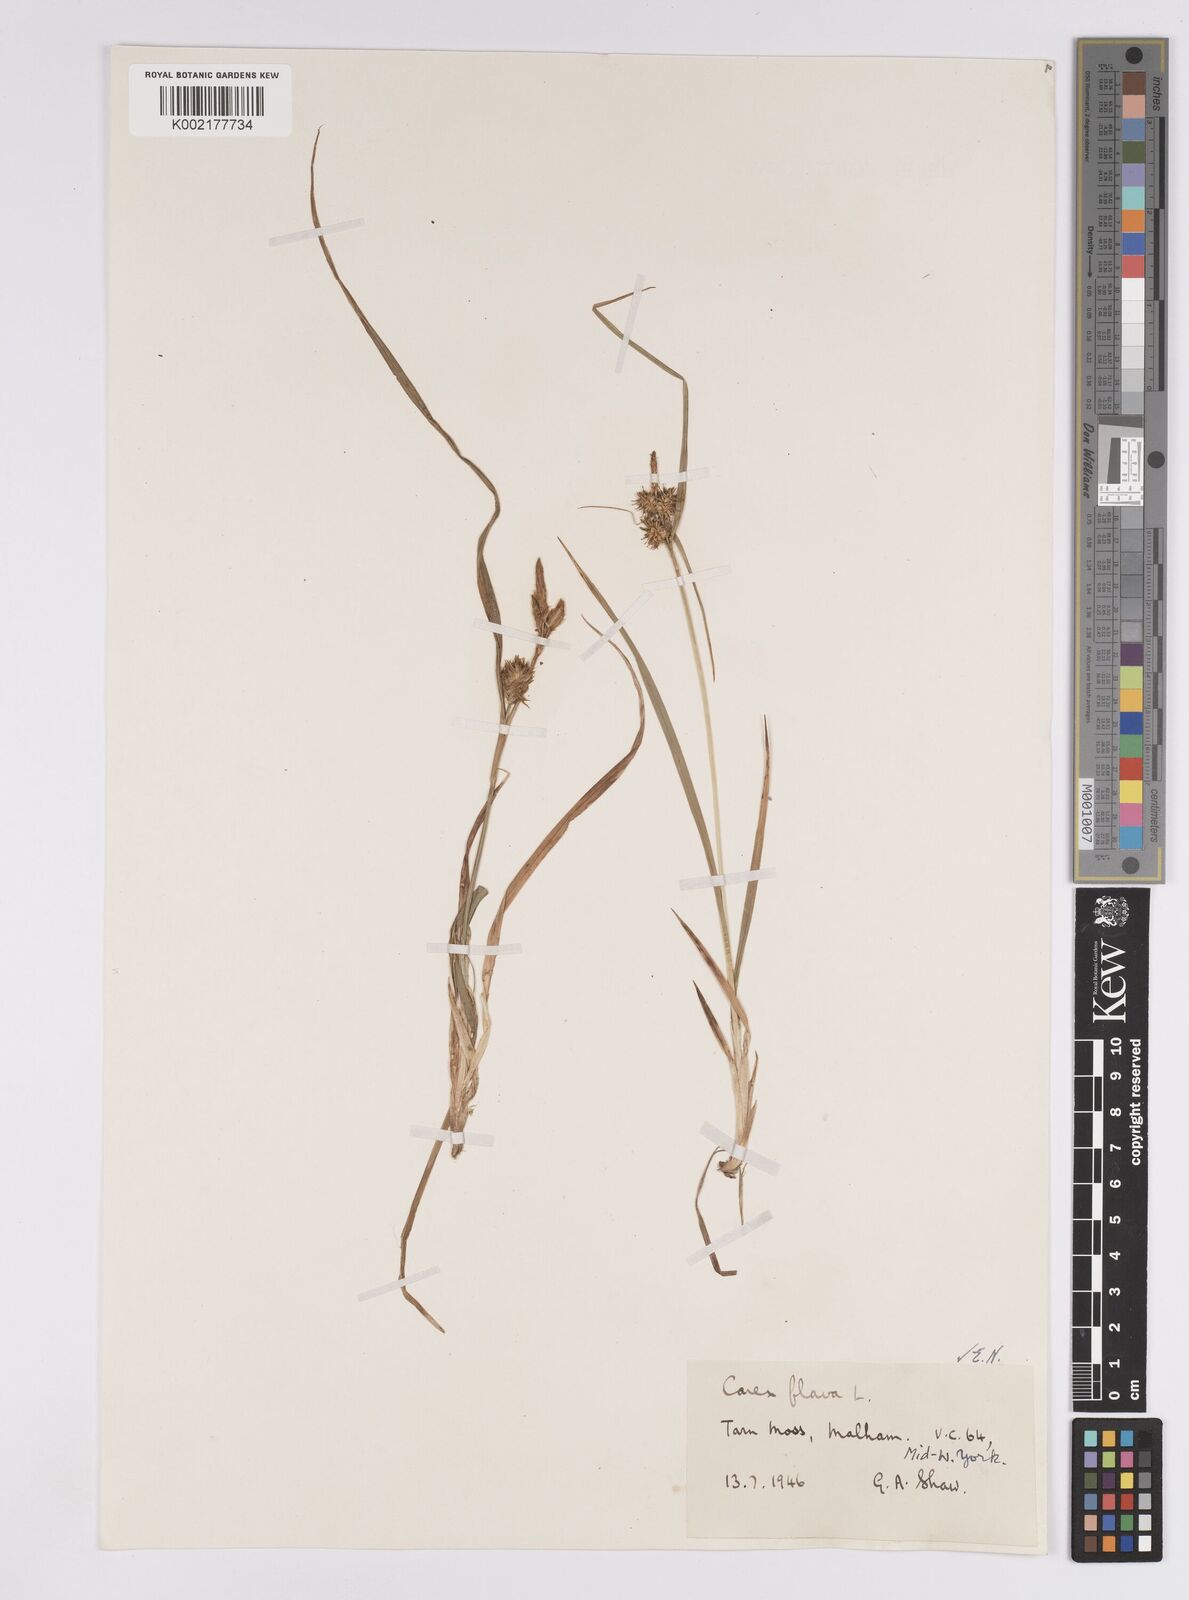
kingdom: Plantae
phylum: Tracheophyta
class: Liliopsida
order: Poales
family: Cyperaceae
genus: Carex
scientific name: Carex flava
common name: Large yellow-sedge
